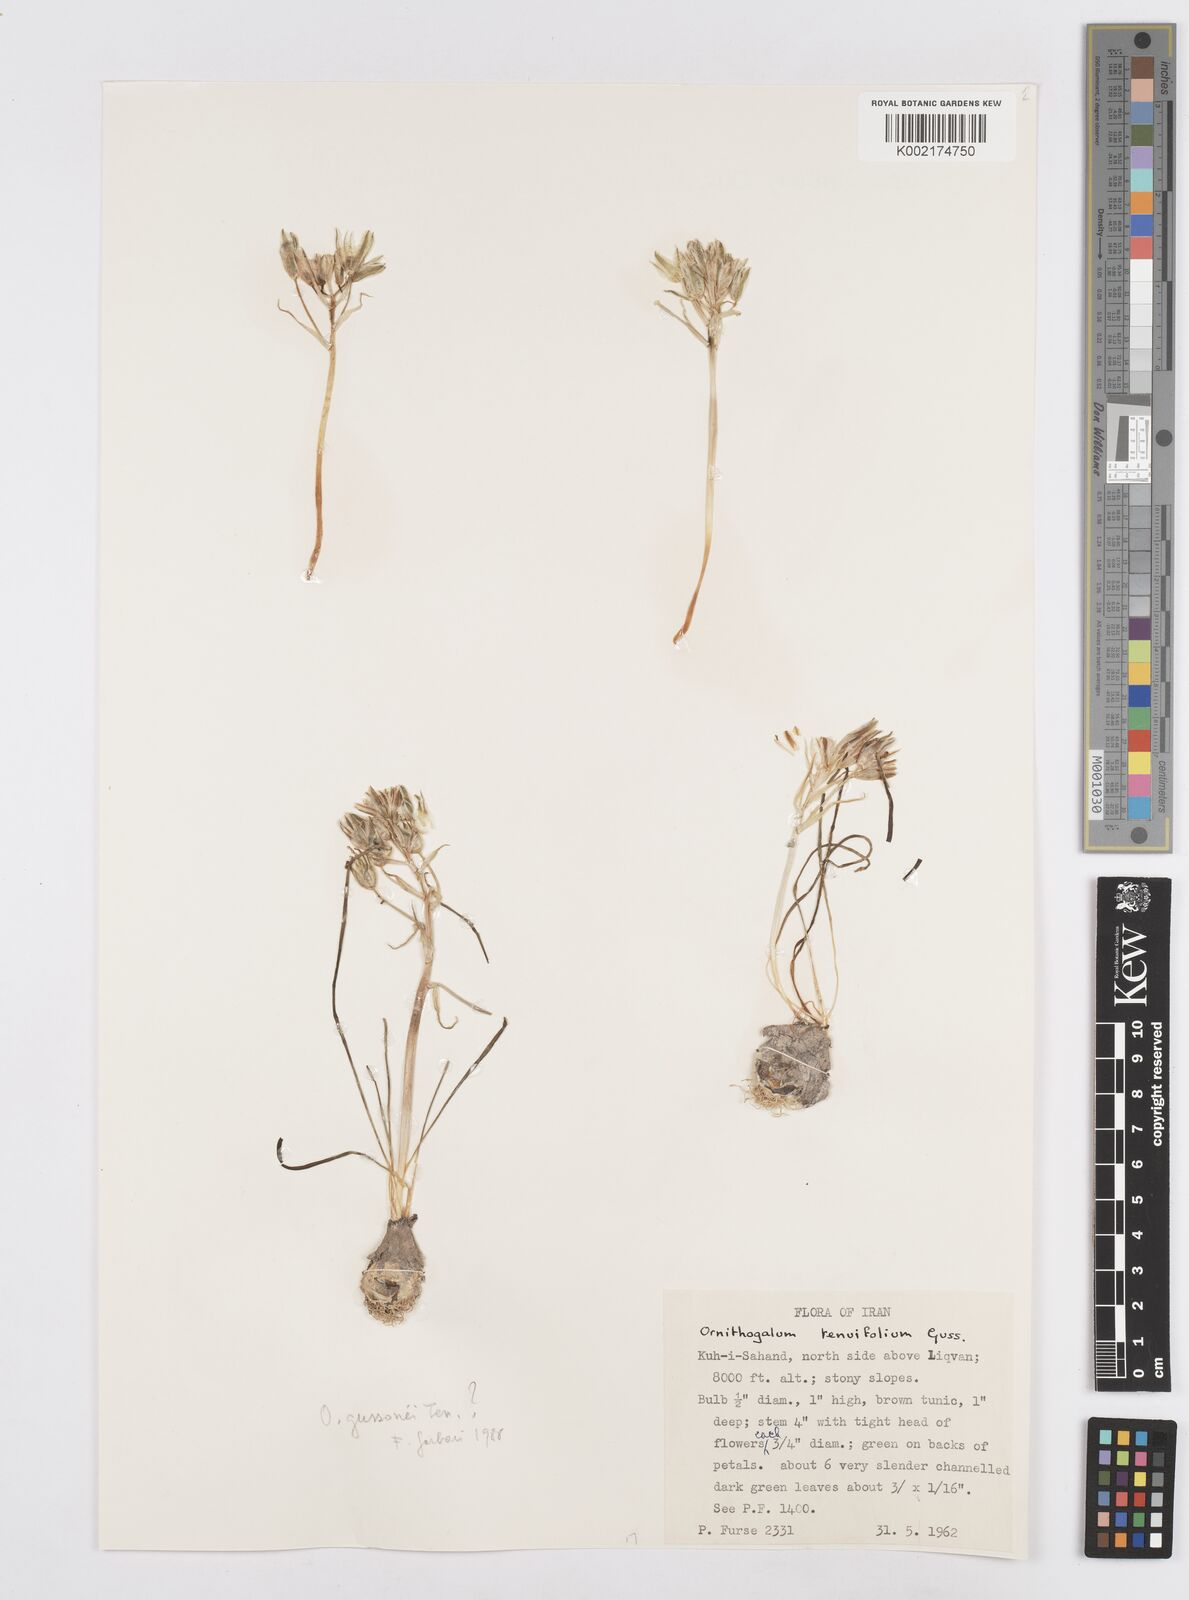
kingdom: Plantae
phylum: Tracheophyta
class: Liliopsida
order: Asparagales
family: Asparagaceae
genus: Ornithogalum
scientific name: Ornithogalum gussonei
